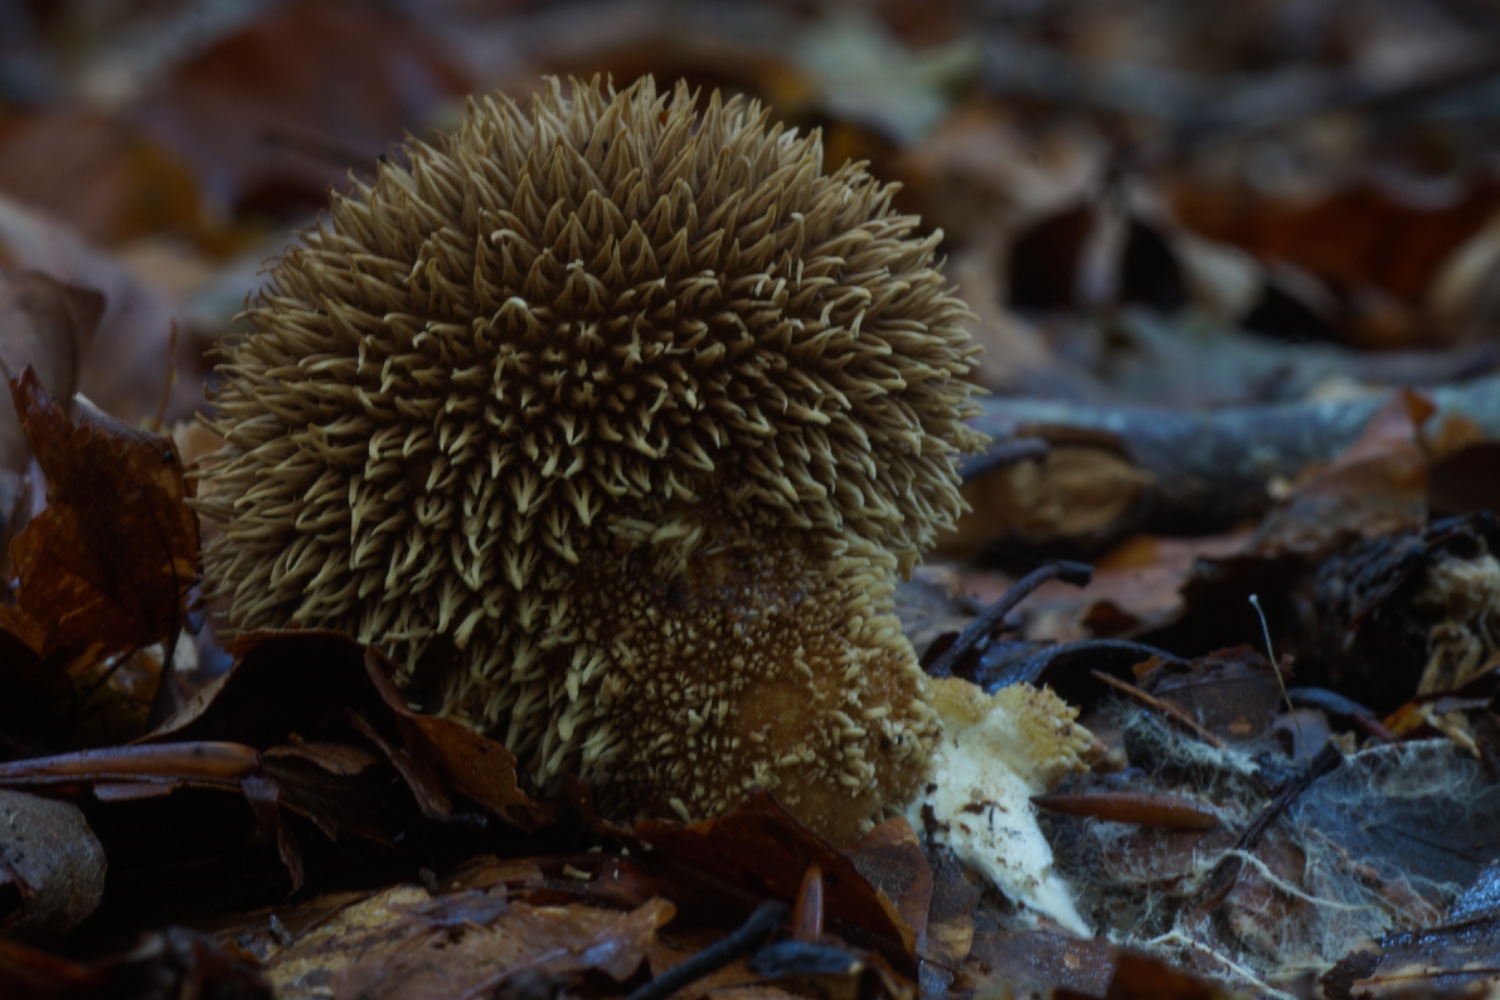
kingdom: Fungi
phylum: Basidiomycota
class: Agaricomycetes
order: Agaricales
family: Lycoperdaceae
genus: Lycoperdon
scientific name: Lycoperdon echinatum
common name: pindsvine-støvbold
